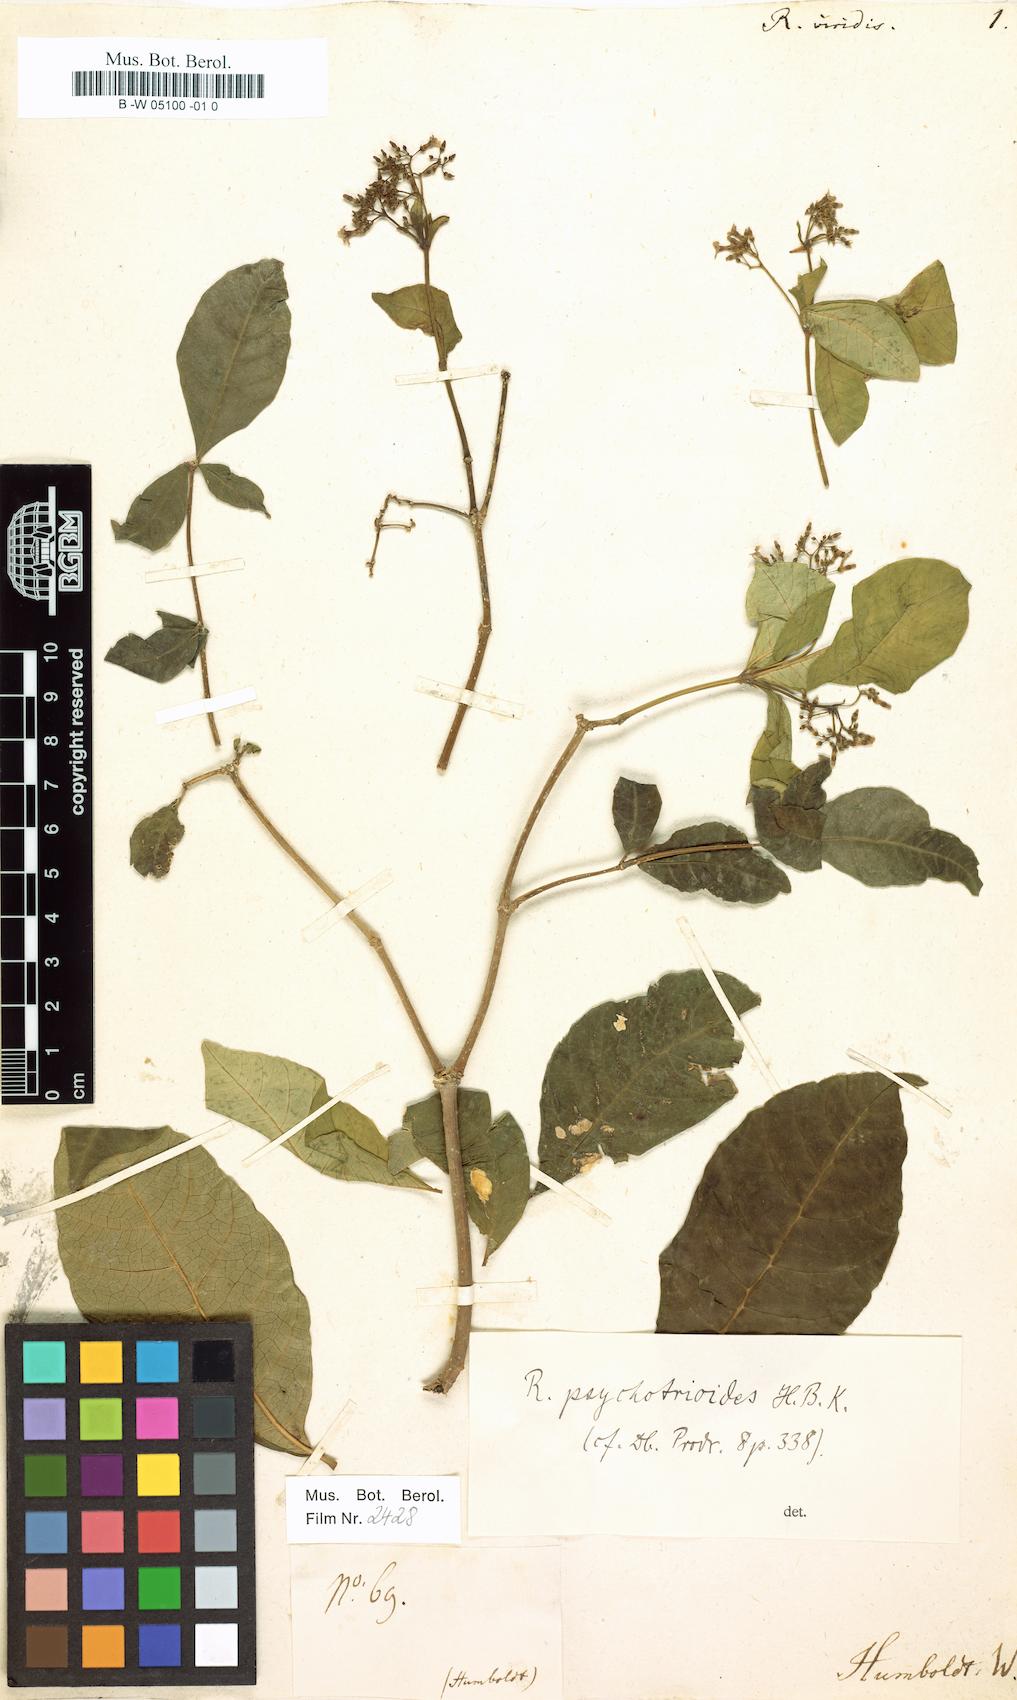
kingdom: Plantae
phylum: Tracheophyta
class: Magnoliopsida
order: Gentianales
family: Apocynaceae
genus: Rauvolfia
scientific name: Rauvolfia viridis
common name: Bellyache
